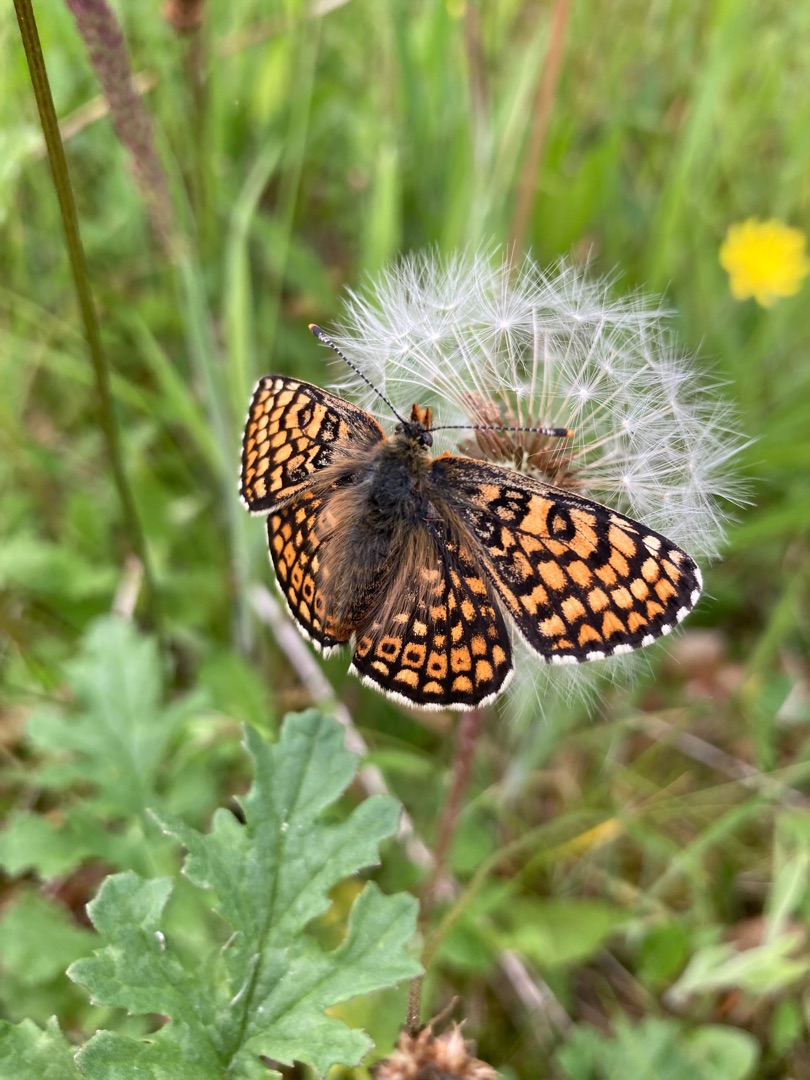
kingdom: Animalia
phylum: Arthropoda
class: Insecta
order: Lepidoptera
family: Nymphalidae
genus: Melitaea
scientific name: Melitaea cinxia
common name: Okkergul pletvinge
